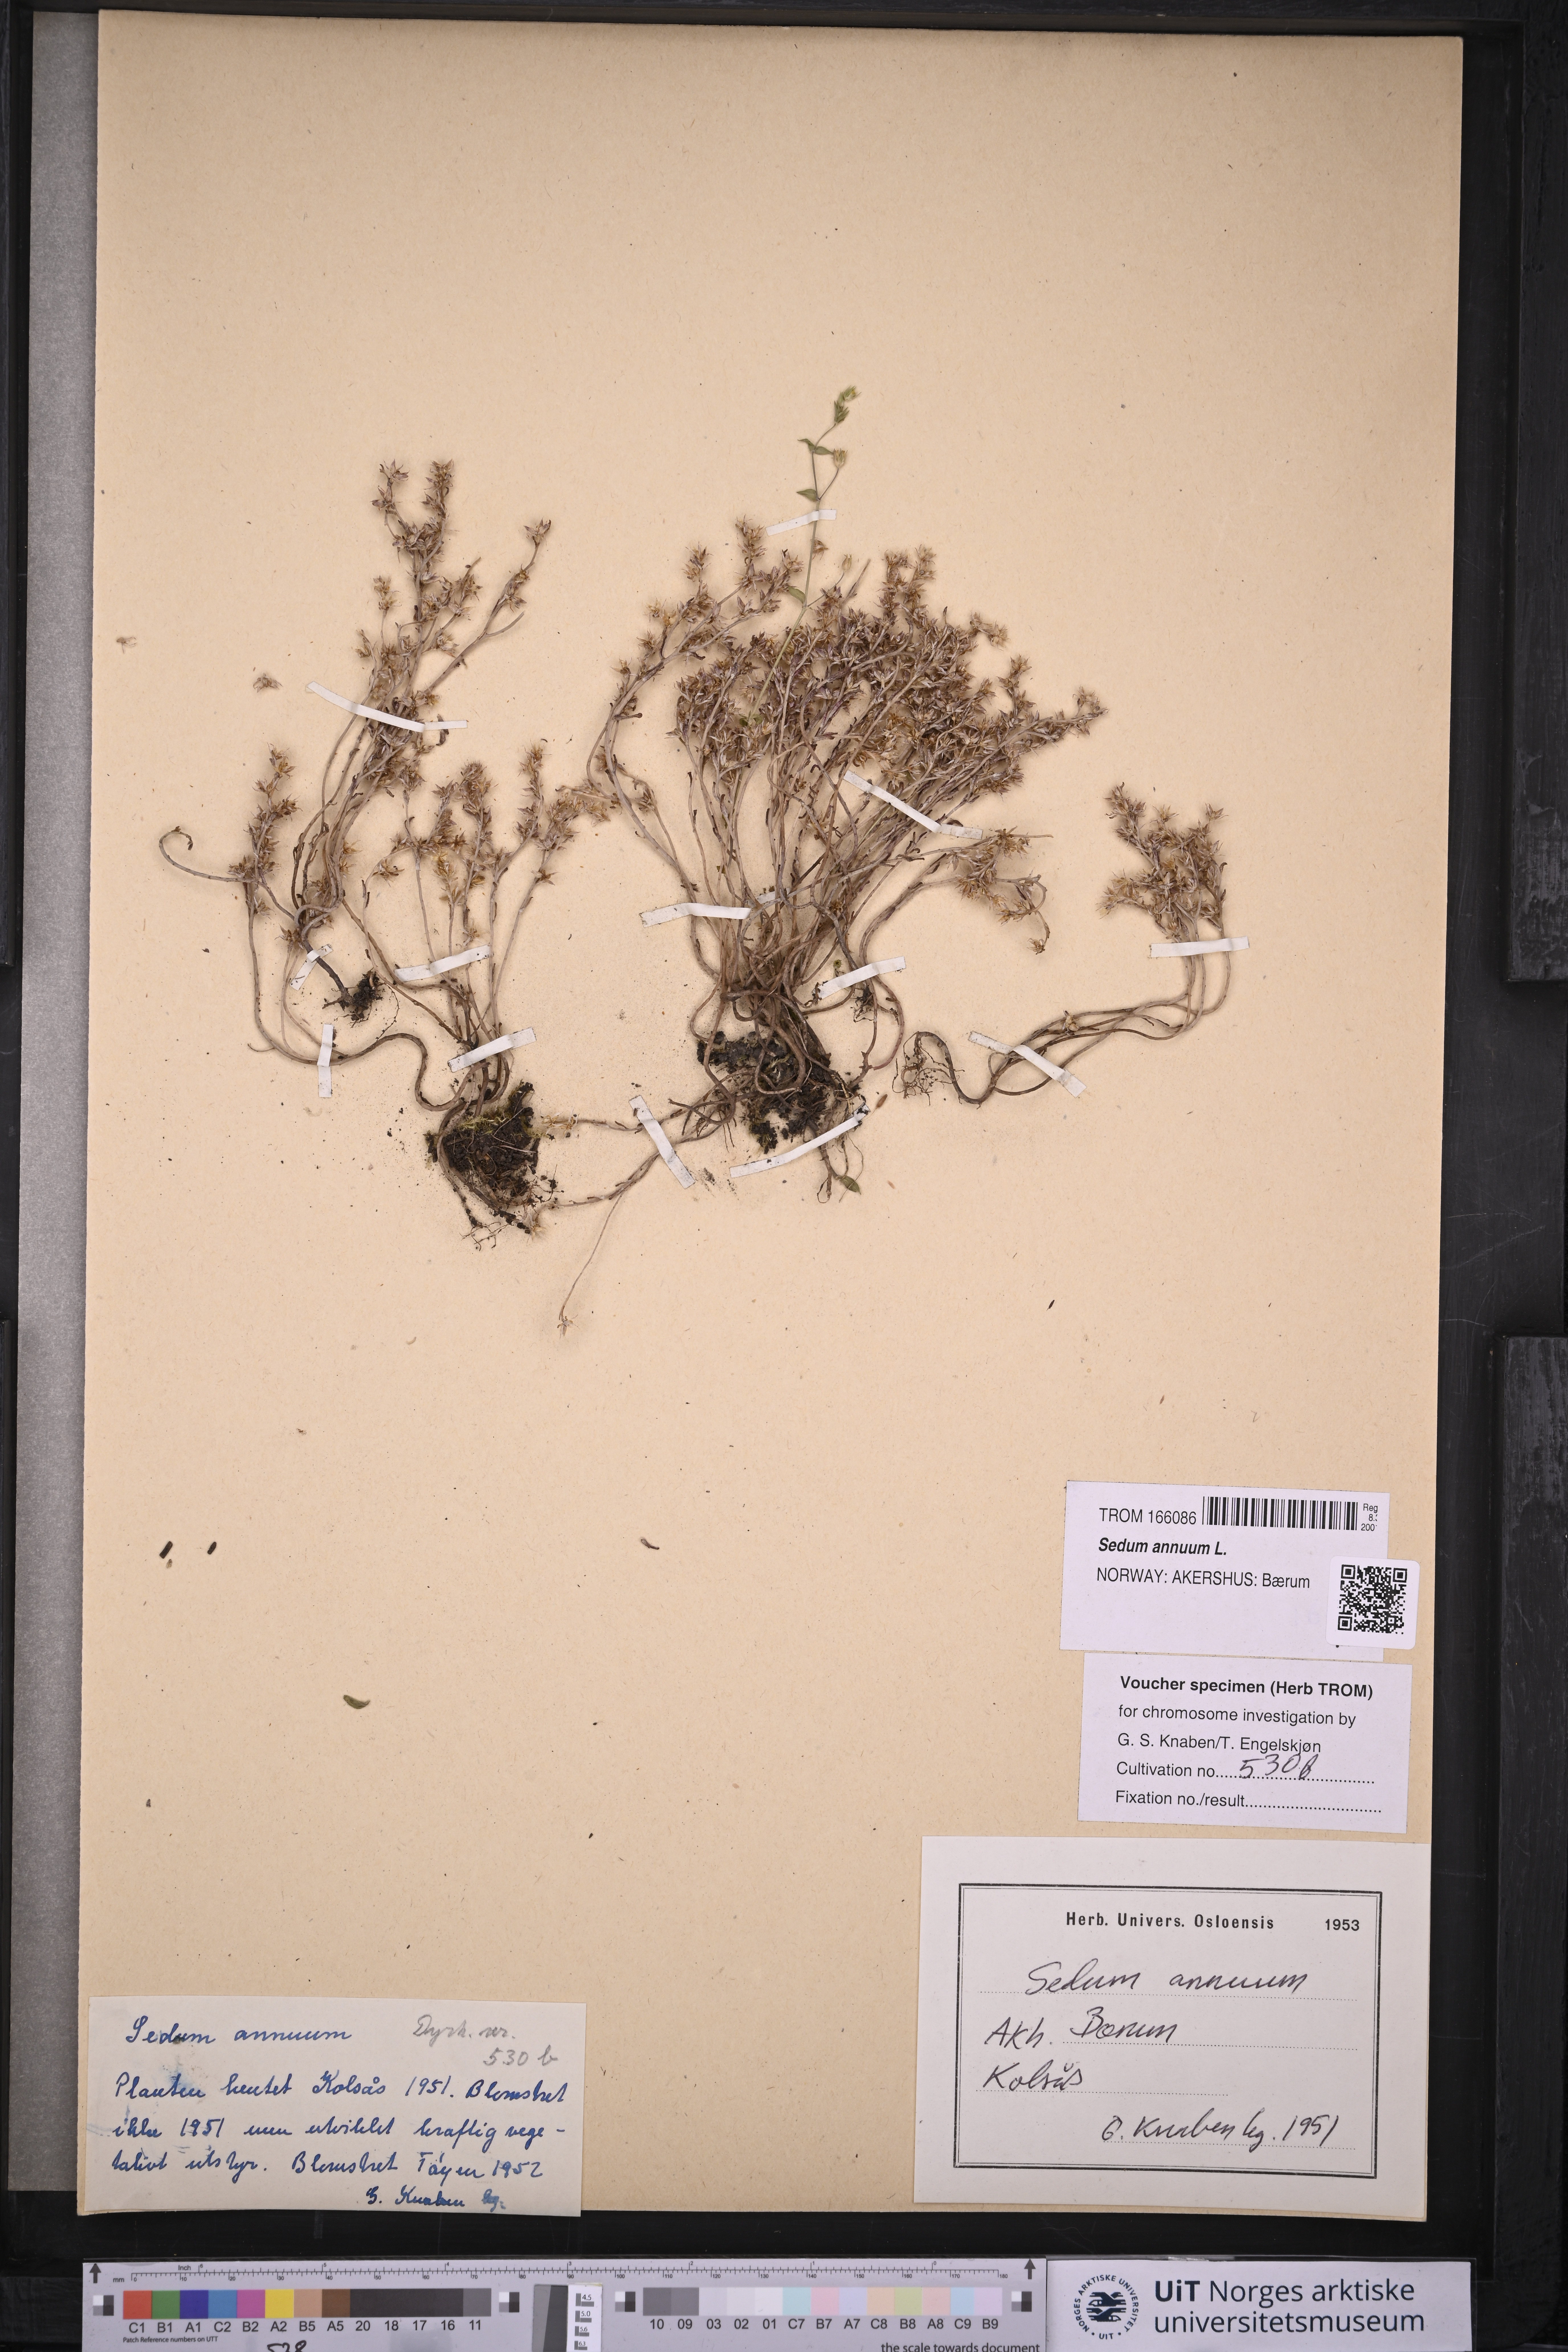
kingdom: Plantae
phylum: Tracheophyta
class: Magnoliopsida
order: Saxifragales
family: Crassulaceae
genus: Sedum
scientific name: Sedum annuum
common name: Annual stonecrop
